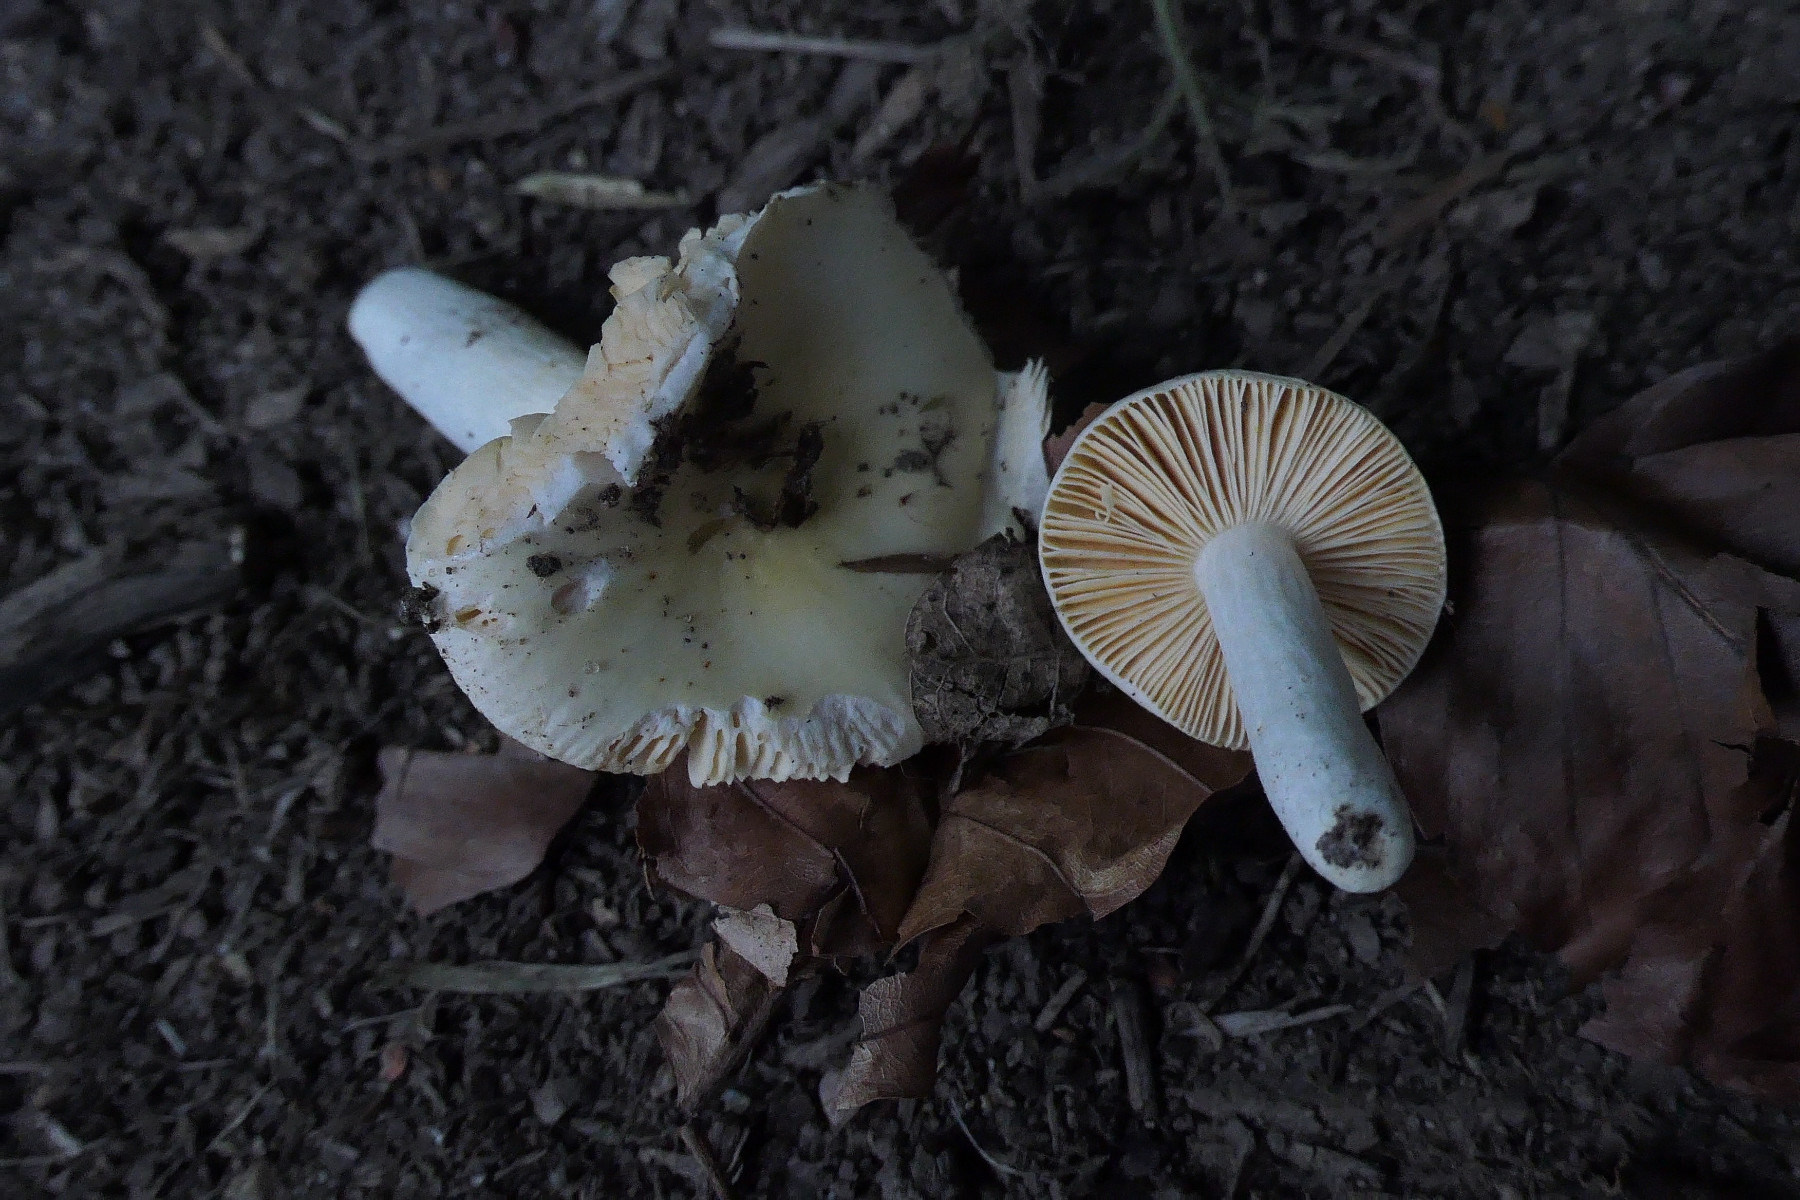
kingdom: Fungi
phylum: Basidiomycota
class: Agaricomycetes
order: Russulales
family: Russulaceae
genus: Russula
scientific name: Russula risigallina
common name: abrikos-skørhat
